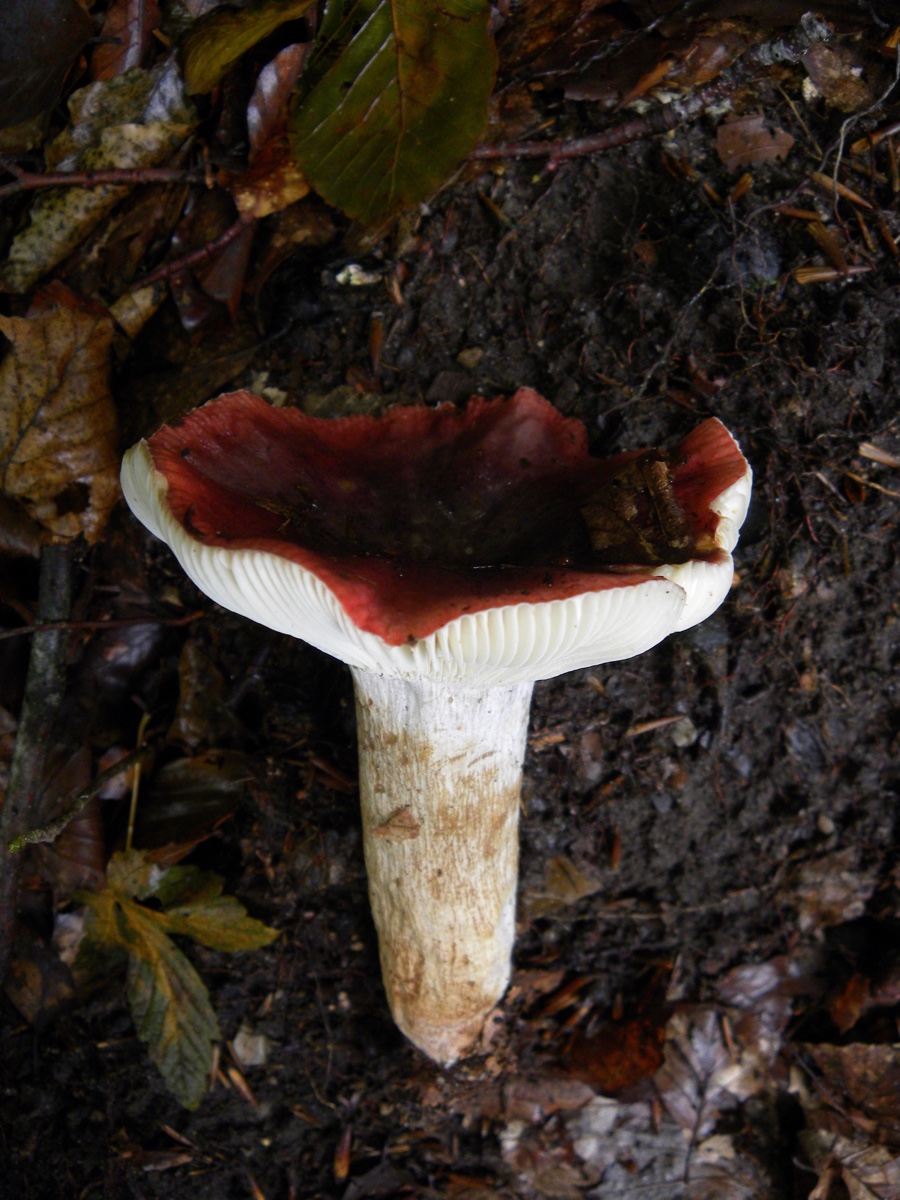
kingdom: Fungi
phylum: Basidiomycota
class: Agaricomycetes
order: Russulales
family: Russulaceae
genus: Russula
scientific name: Russula
